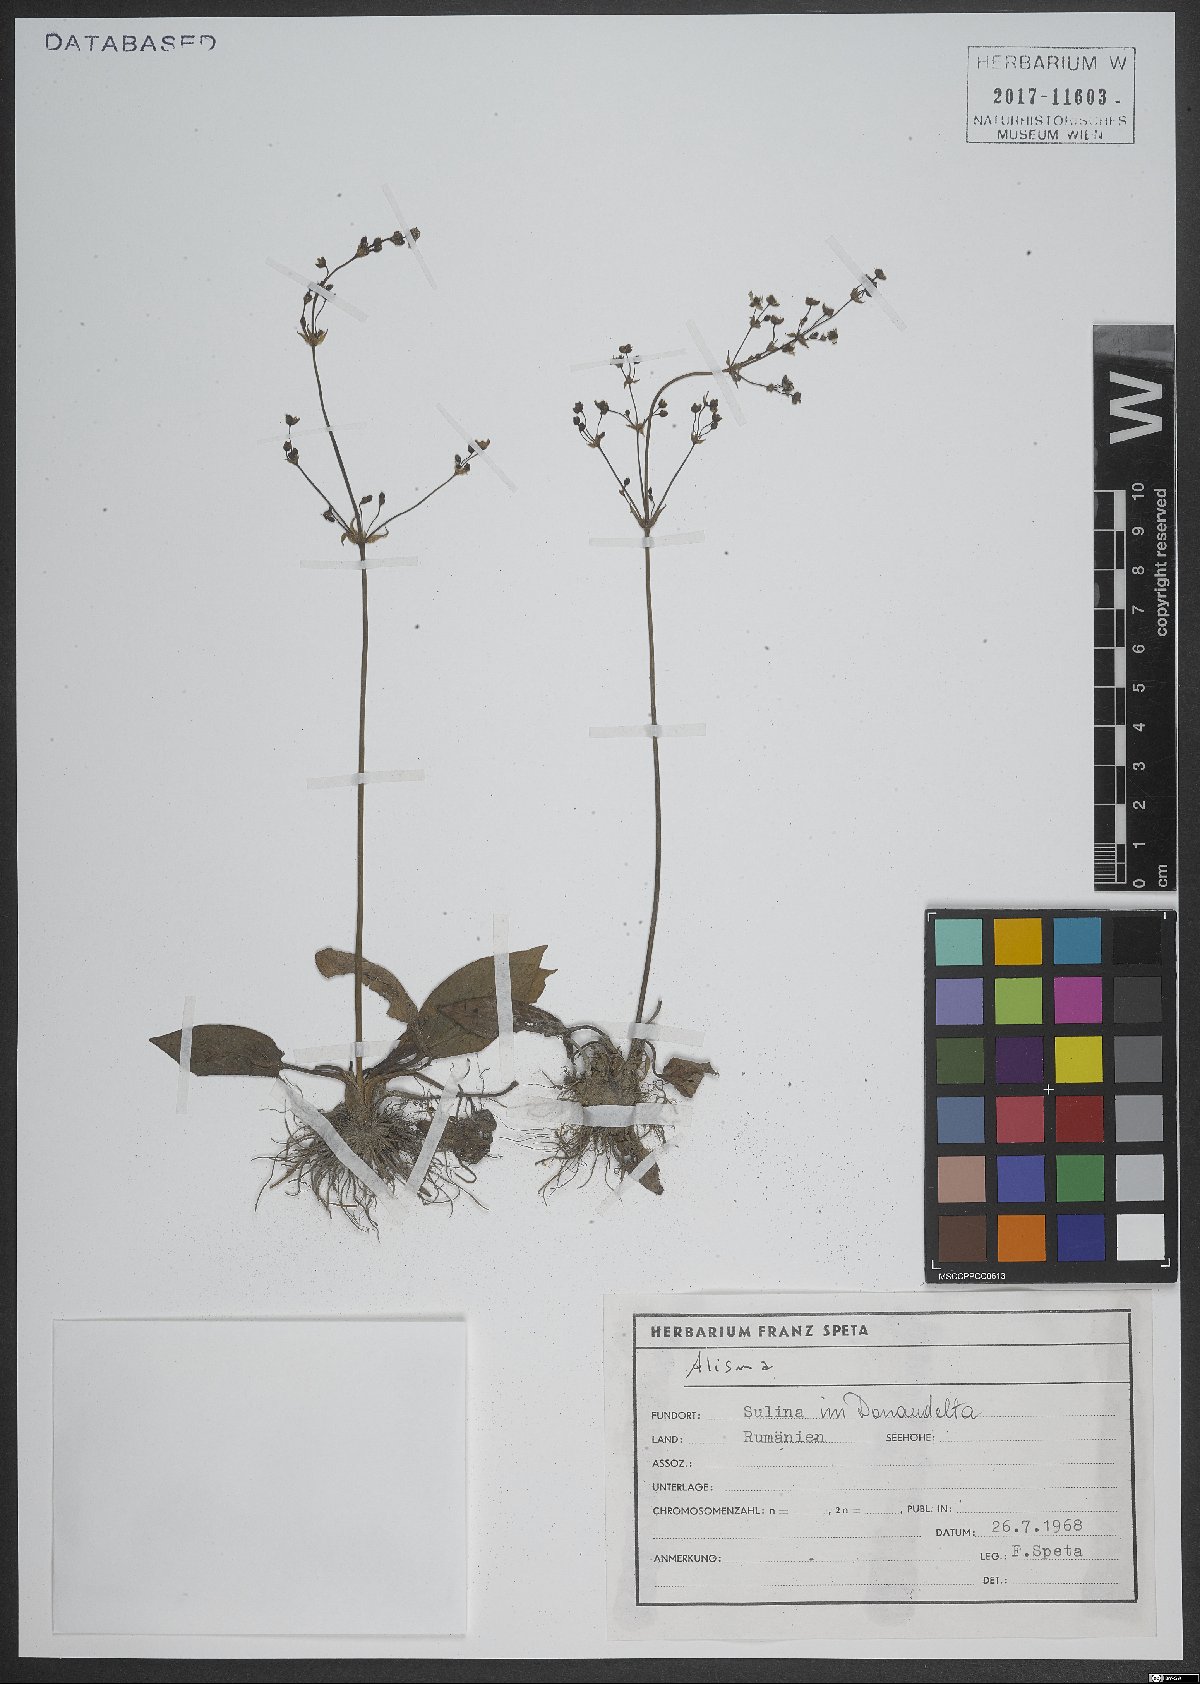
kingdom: Plantae
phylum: Tracheophyta
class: Liliopsida
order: Alismatales
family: Alismataceae
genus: Alisma
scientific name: Alisma
